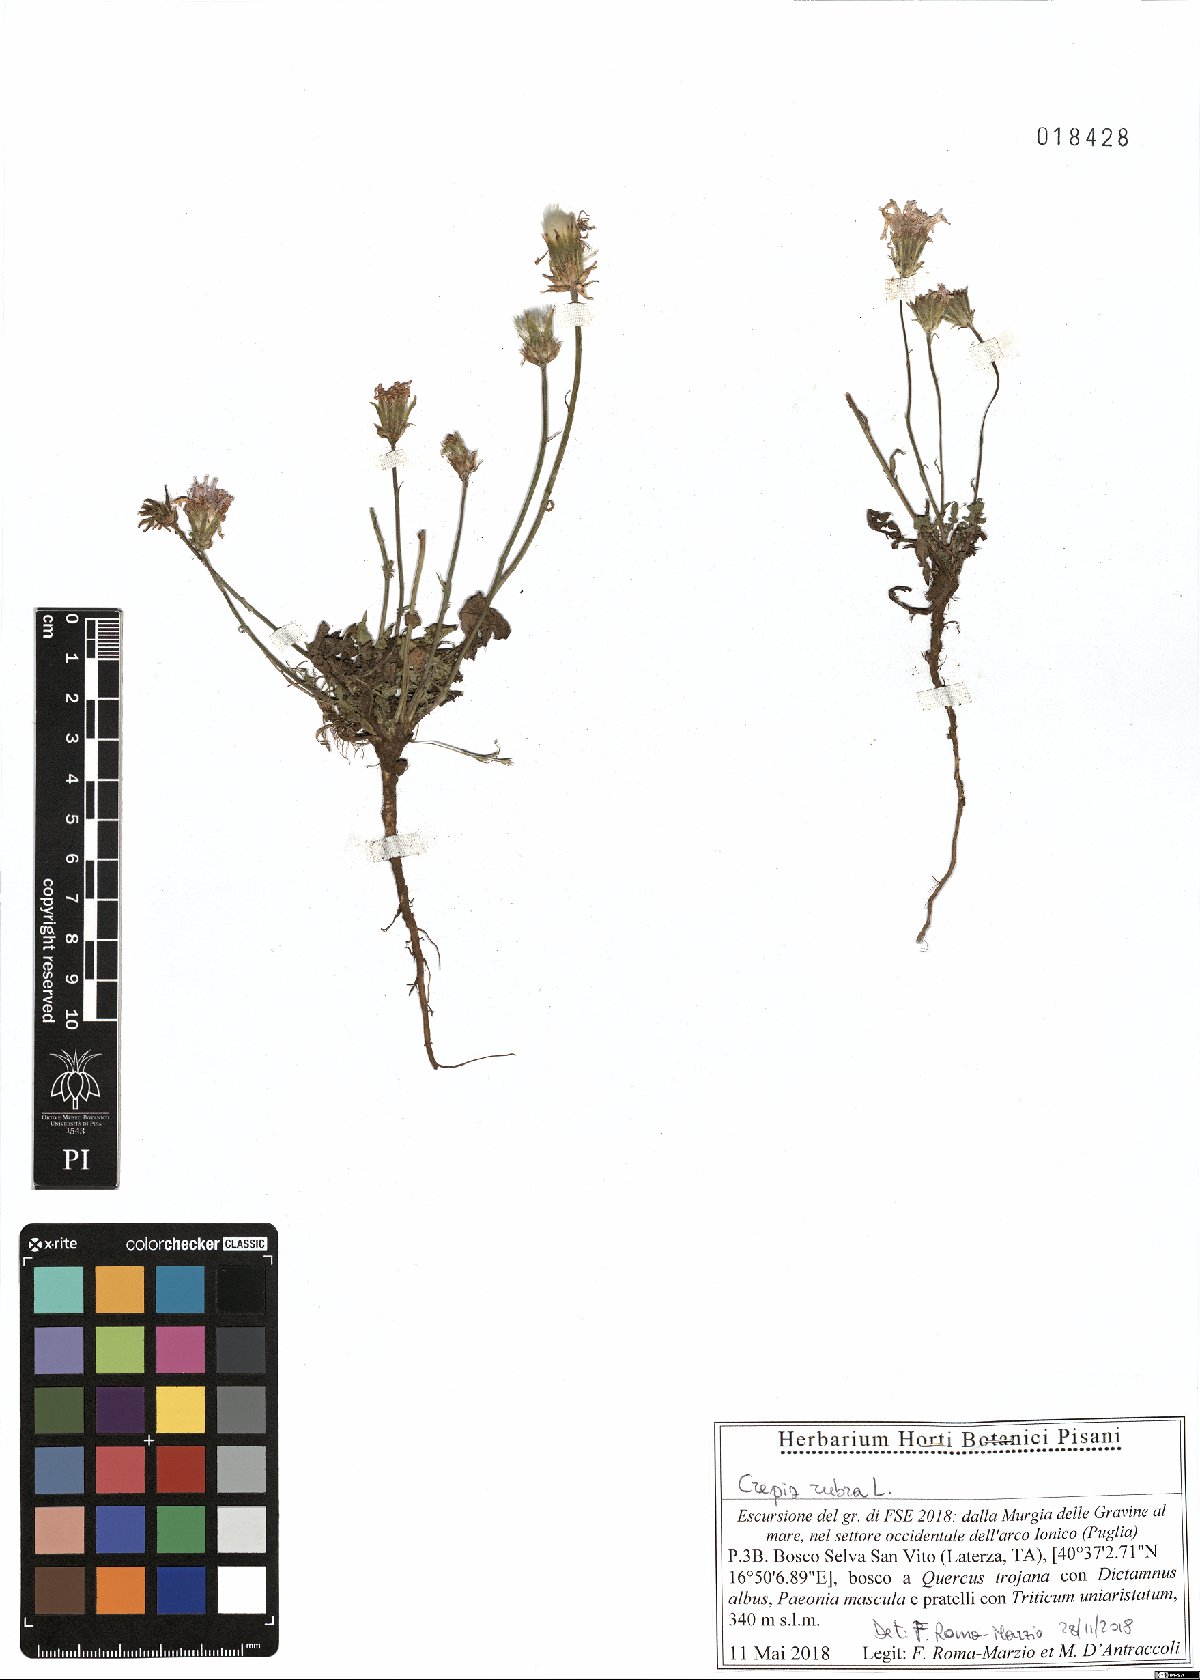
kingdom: Plantae
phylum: Tracheophyta
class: Magnoliopsida
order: Asterales
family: Asteraceae
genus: Crepis
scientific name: Crepis rubra
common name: Pink hawk's-beard
